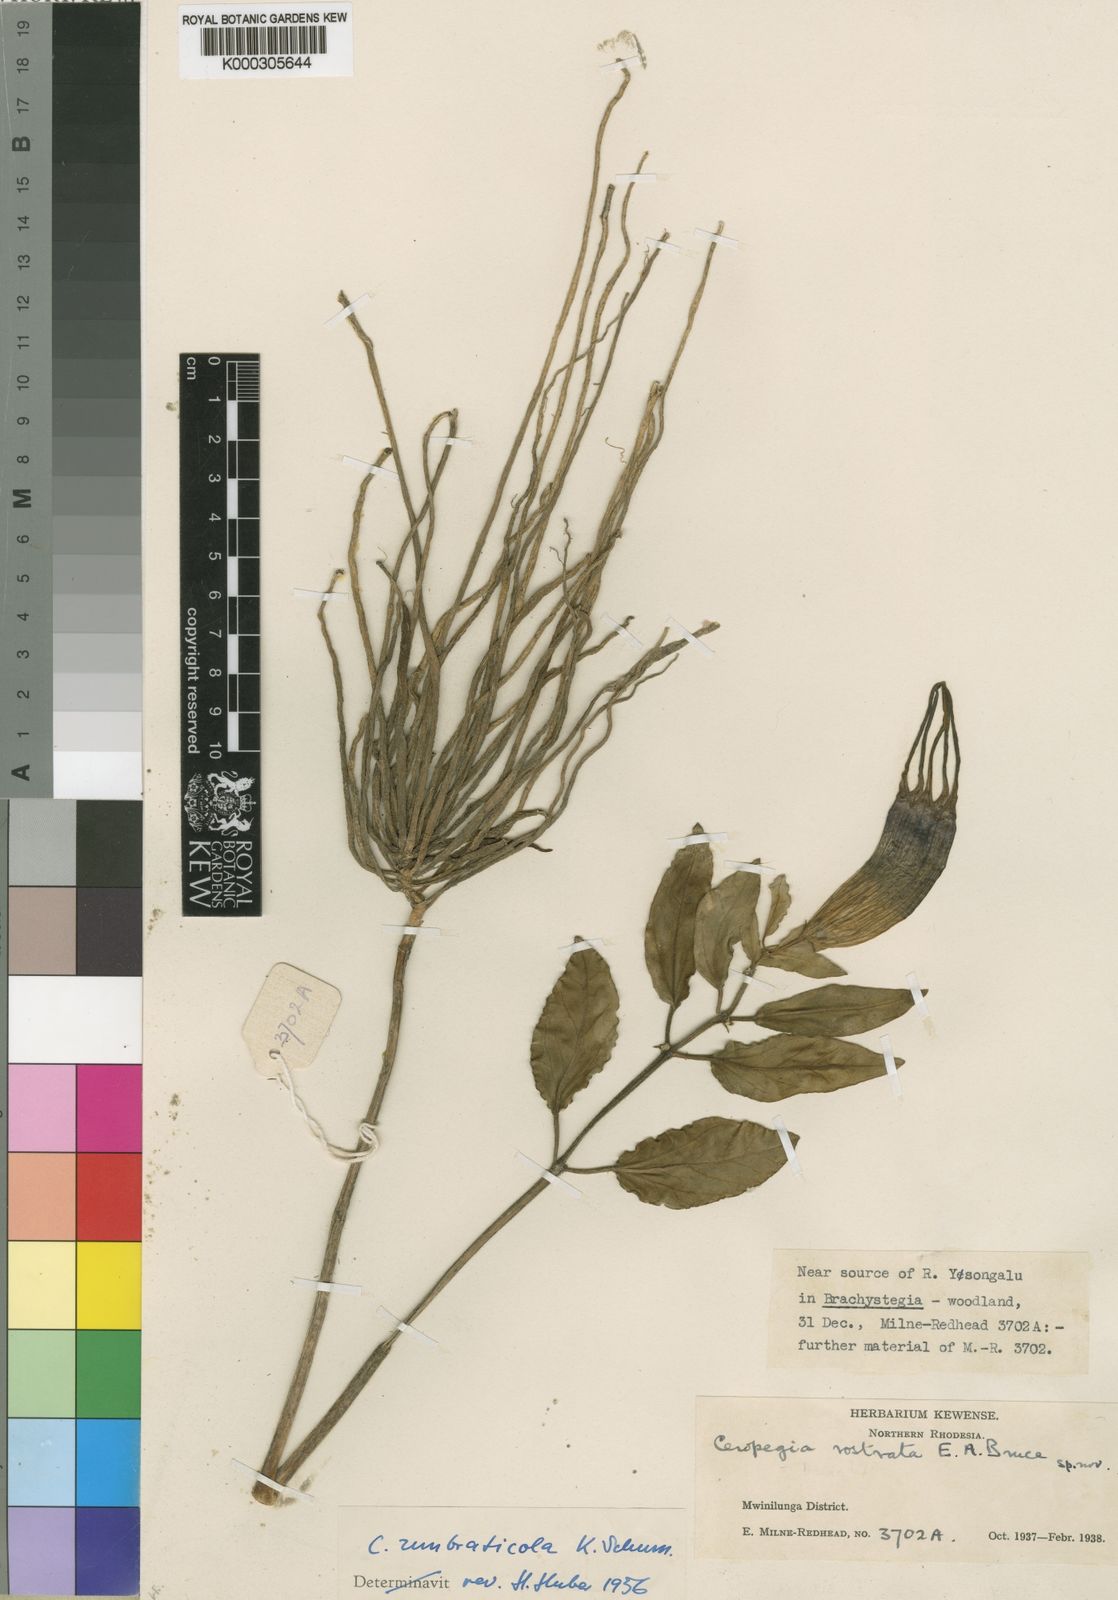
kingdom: Plantae
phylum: Tracheophyta
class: Magnoliopsida
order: Gentianales
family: Apocynaceae
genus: Ceropegia
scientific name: Ceropegia umbraticola
